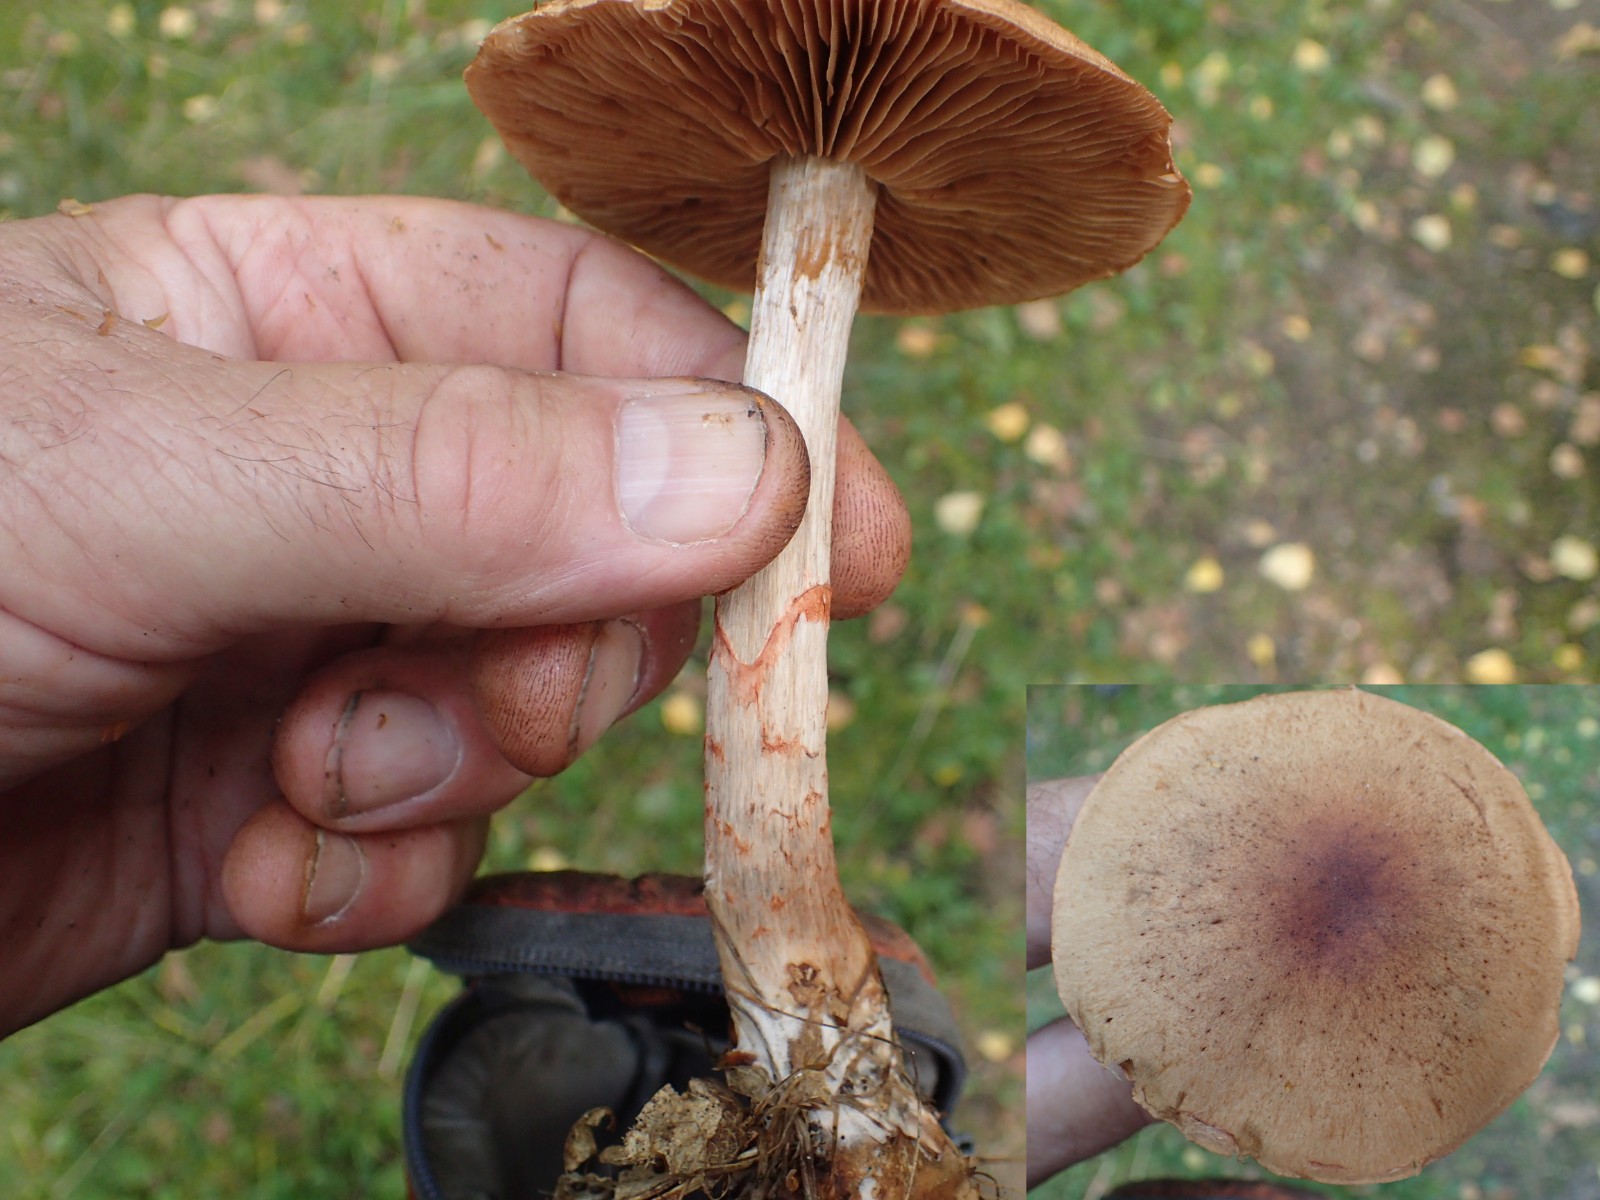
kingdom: Fungi
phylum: Basidiomycota
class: Agaricomycetes
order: Agaricales
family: Cortinariaceae
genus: Cortinarius
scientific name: Cortinarius armillatus
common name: cinnoberbæltet slørhat
